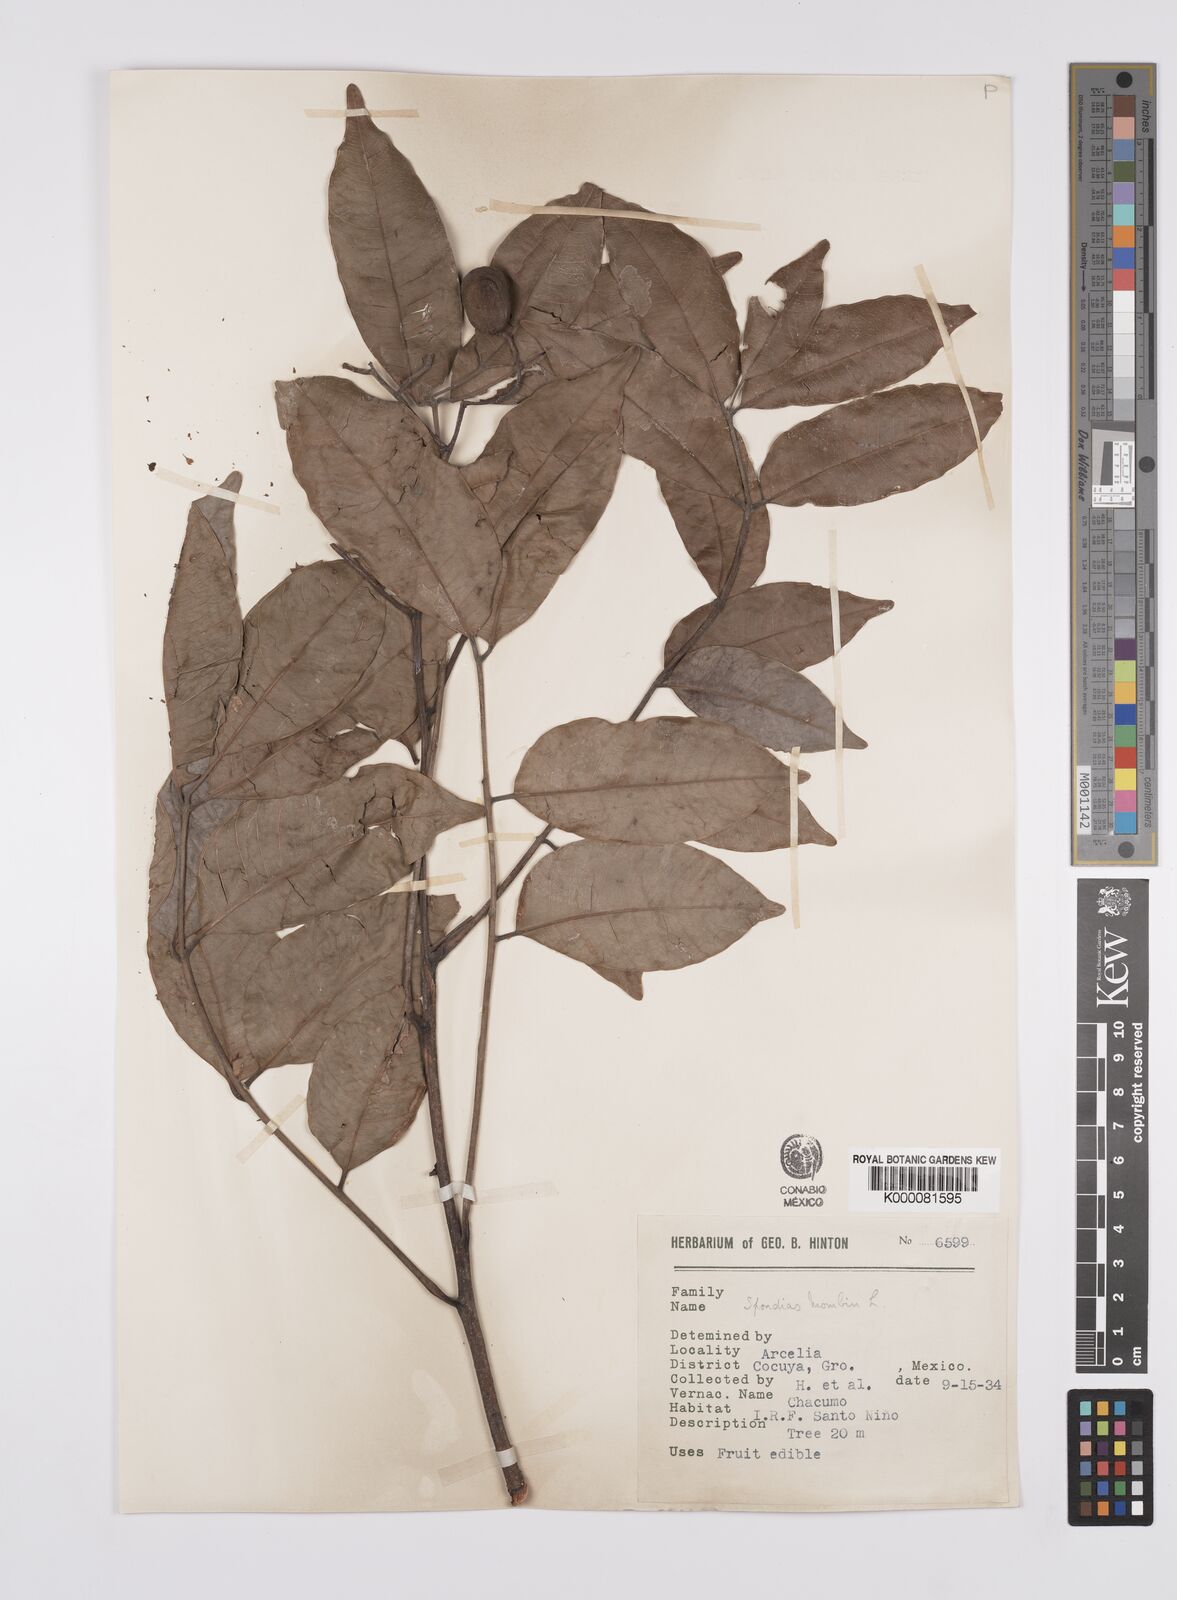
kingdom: Plantae
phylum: Tracheophyta
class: Magnoliopsida
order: Sapindales
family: Anacardiaceae
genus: Spondias
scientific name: Spondias mombin
